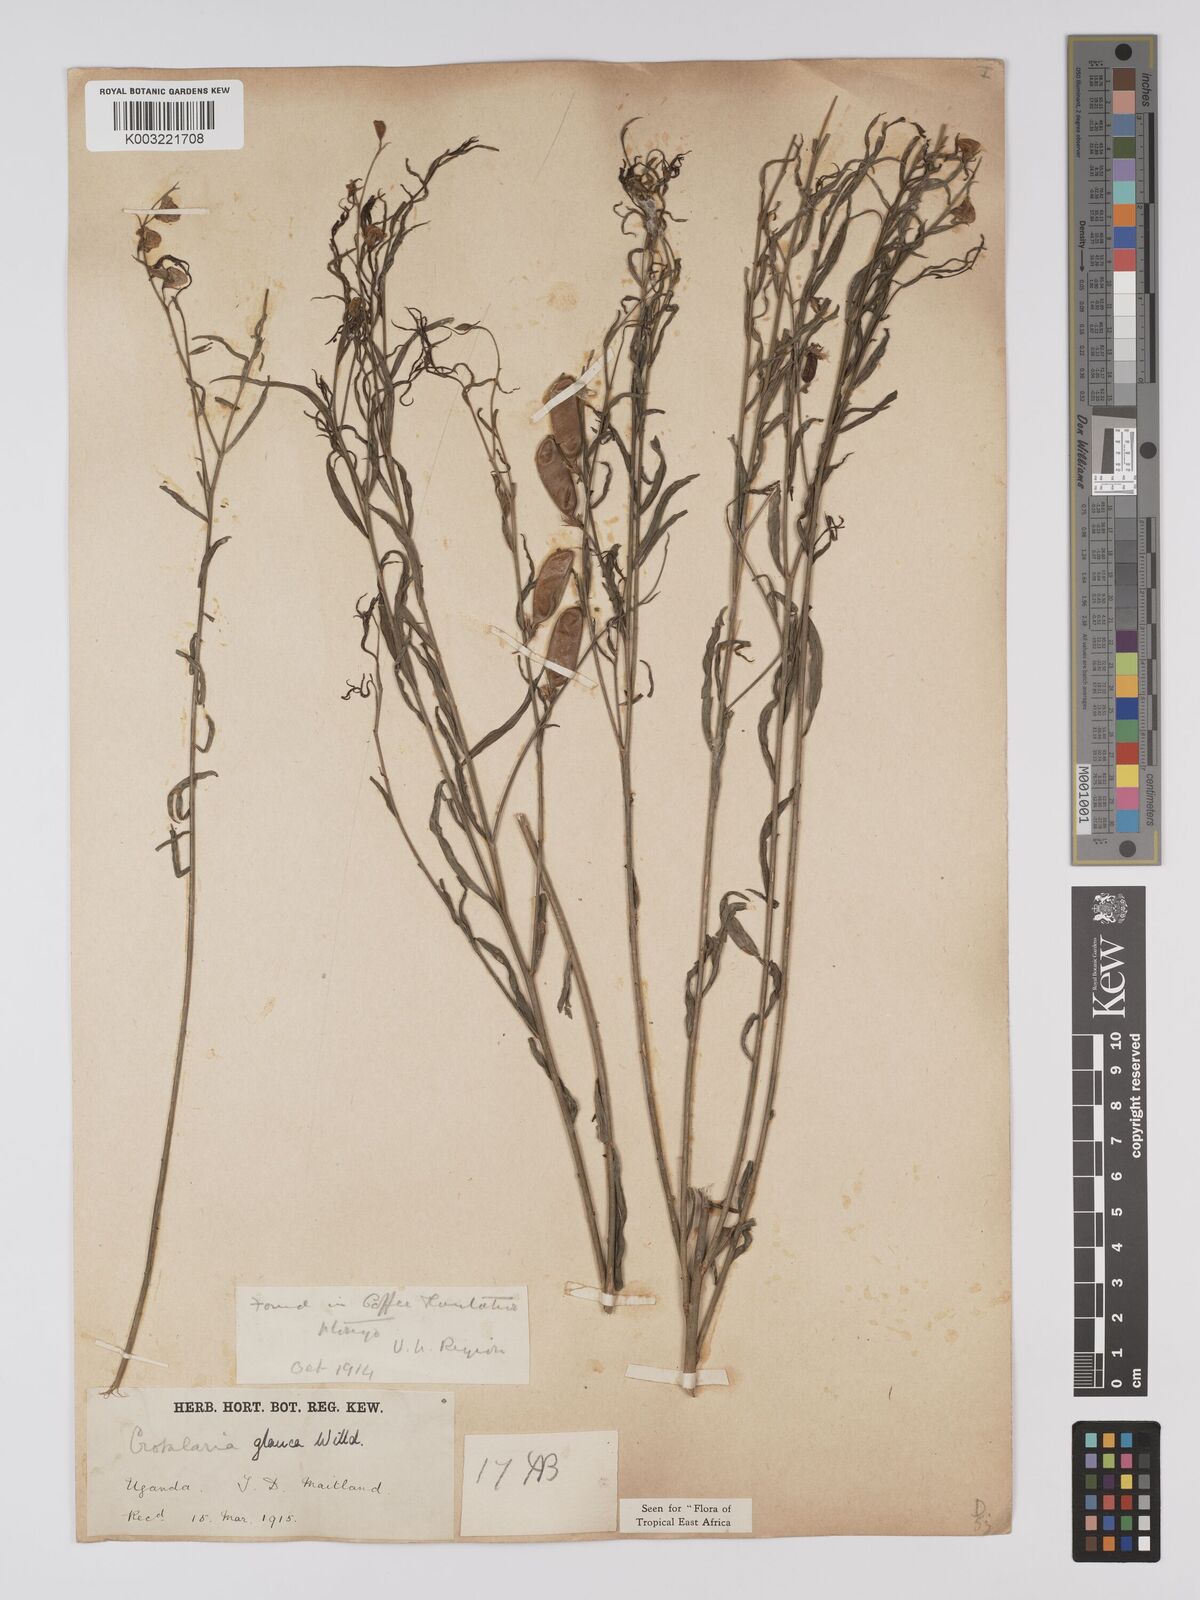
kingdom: Plantae
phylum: Tracheophyta
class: Magnoliopsida
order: Fabales
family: Fabaceae
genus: Crotalaria
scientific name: Crotalaria glauca
